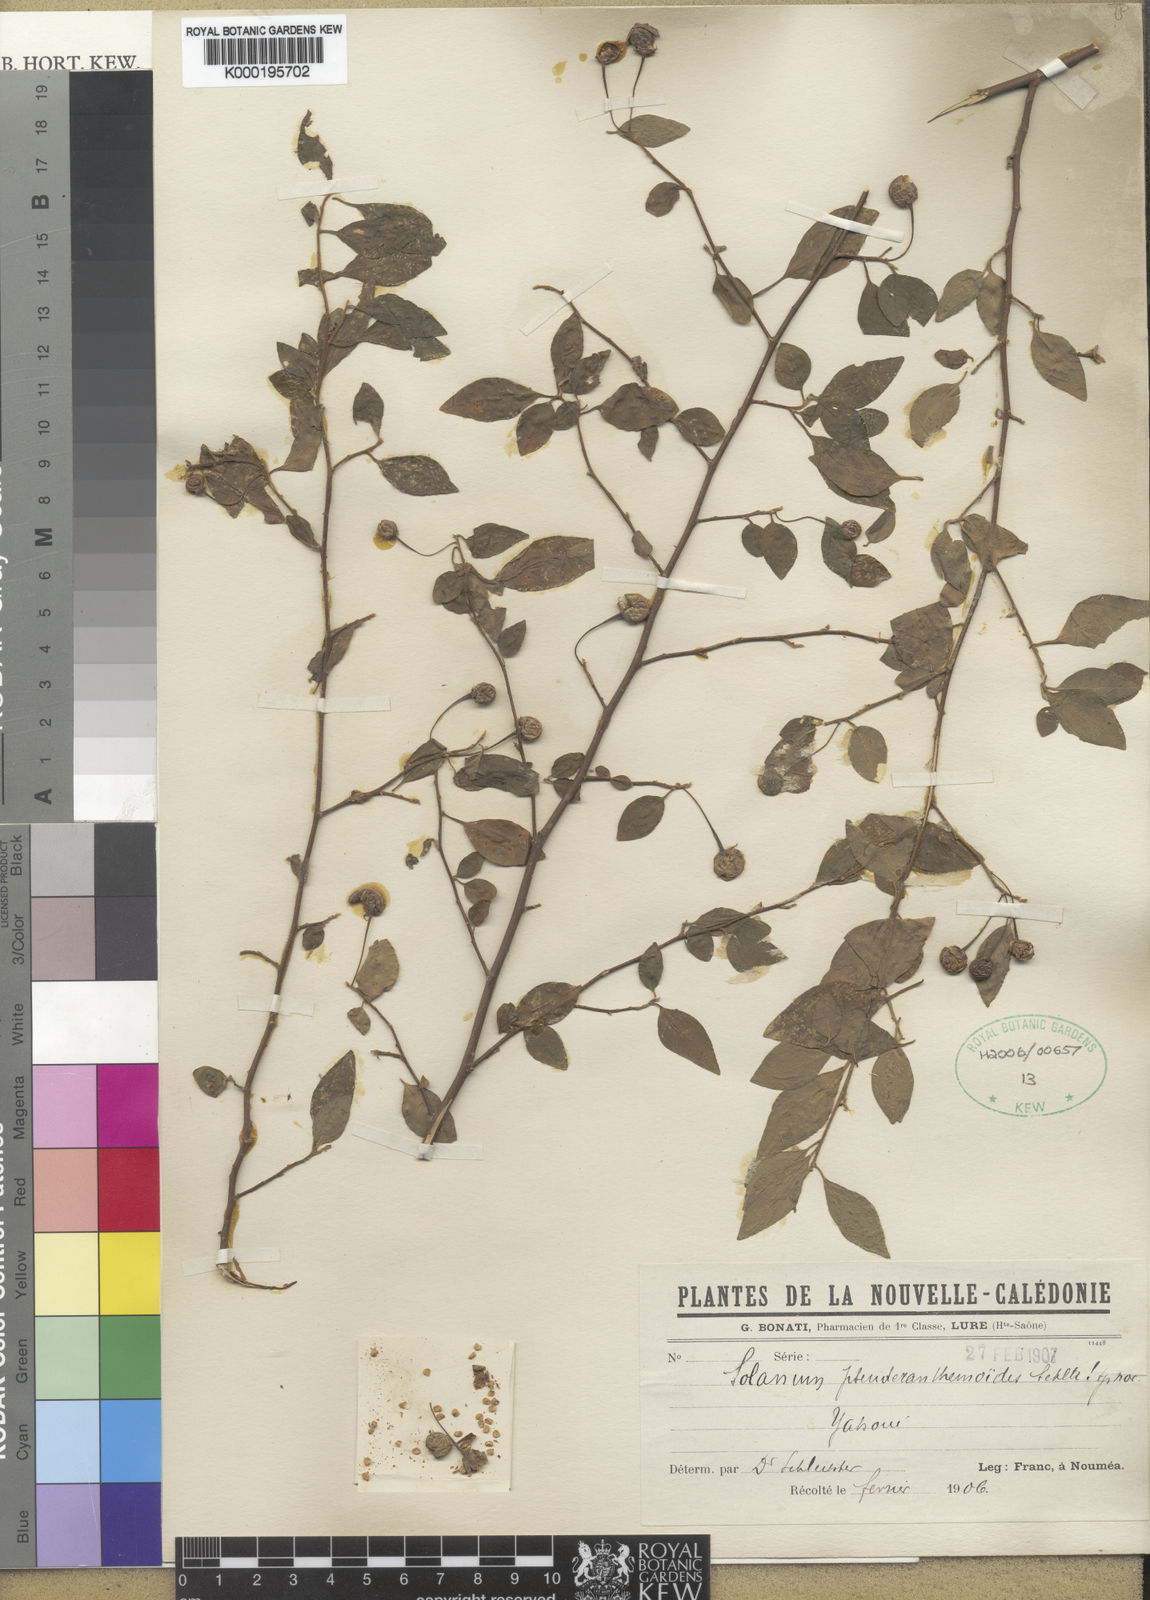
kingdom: Plantae
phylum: Tracheophyta
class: Magnoliopsida
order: Solanales
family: Solanaceae
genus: Solanum
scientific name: Solanum pseuderanthemoides
